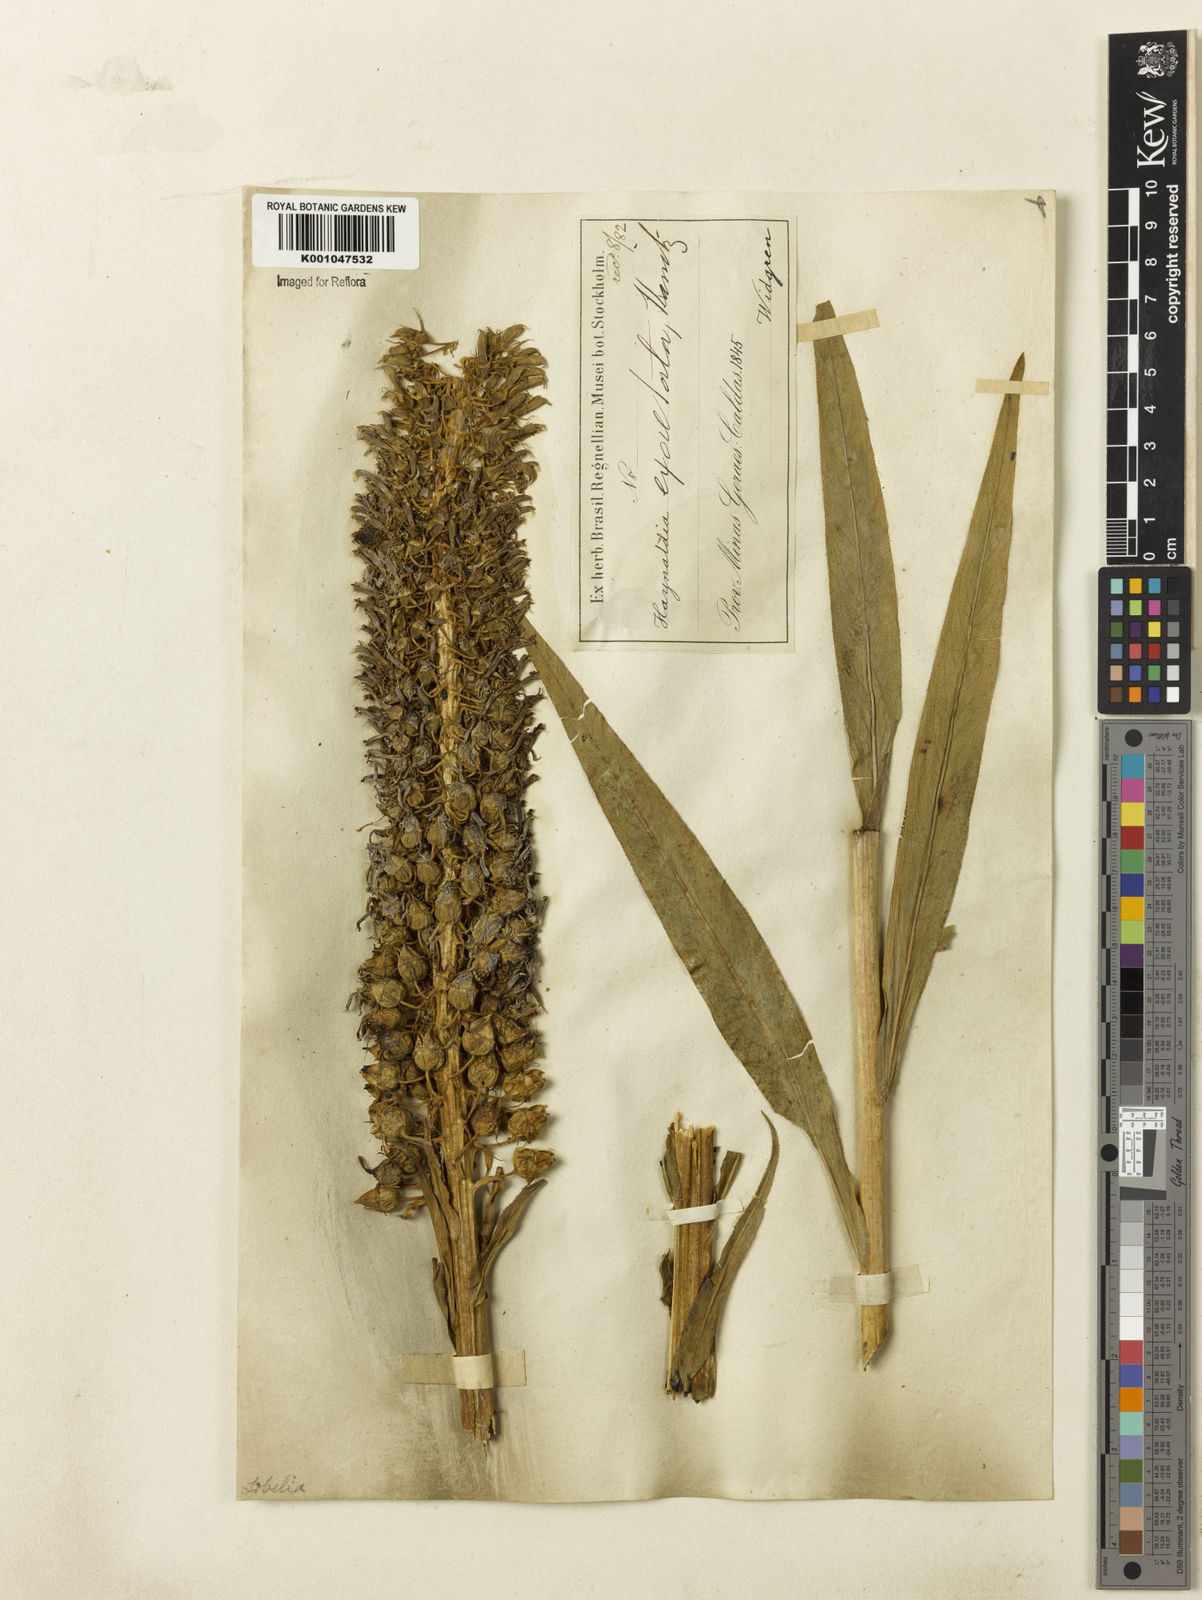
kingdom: Plantae
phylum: Tracheophyta
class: Magnoliopsida
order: Asterales
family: Campanulaceae
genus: Lobelia
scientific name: Lobelia exaltata
